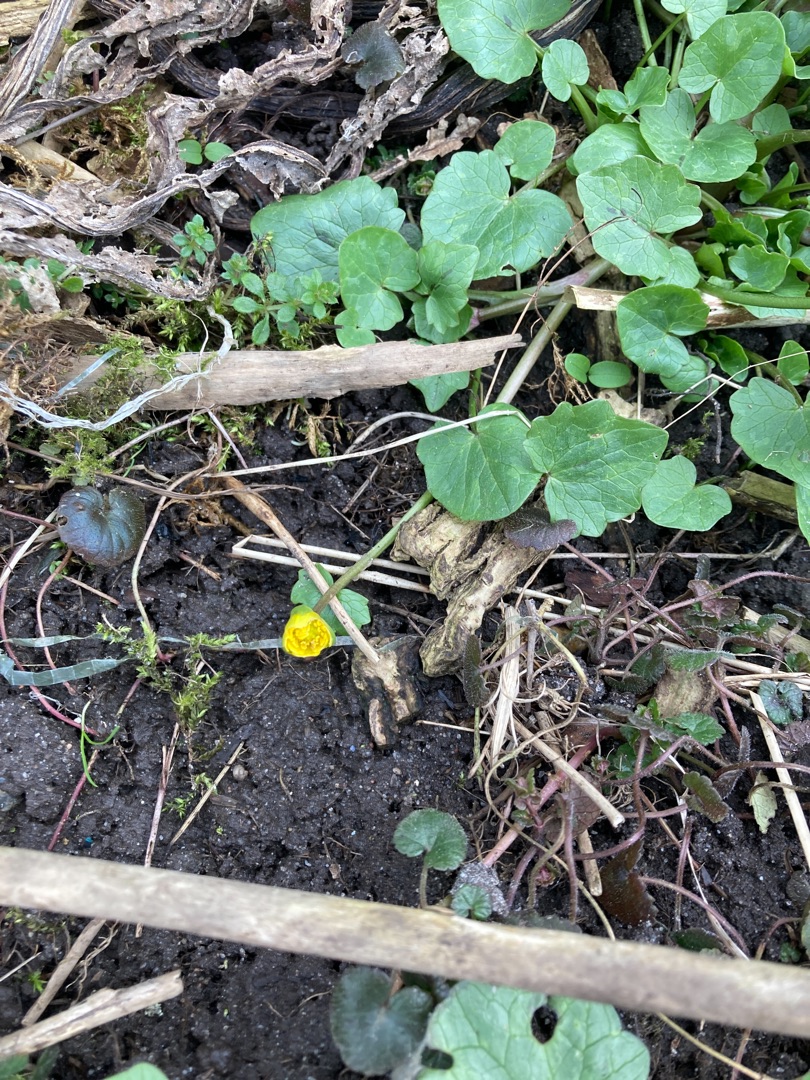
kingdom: Plantae
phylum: Tracheophyta
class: Magnoliopsida
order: Ranunculales
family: Ranunculaceae
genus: Ficaria
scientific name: Ficaria verna
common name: Vorterod
